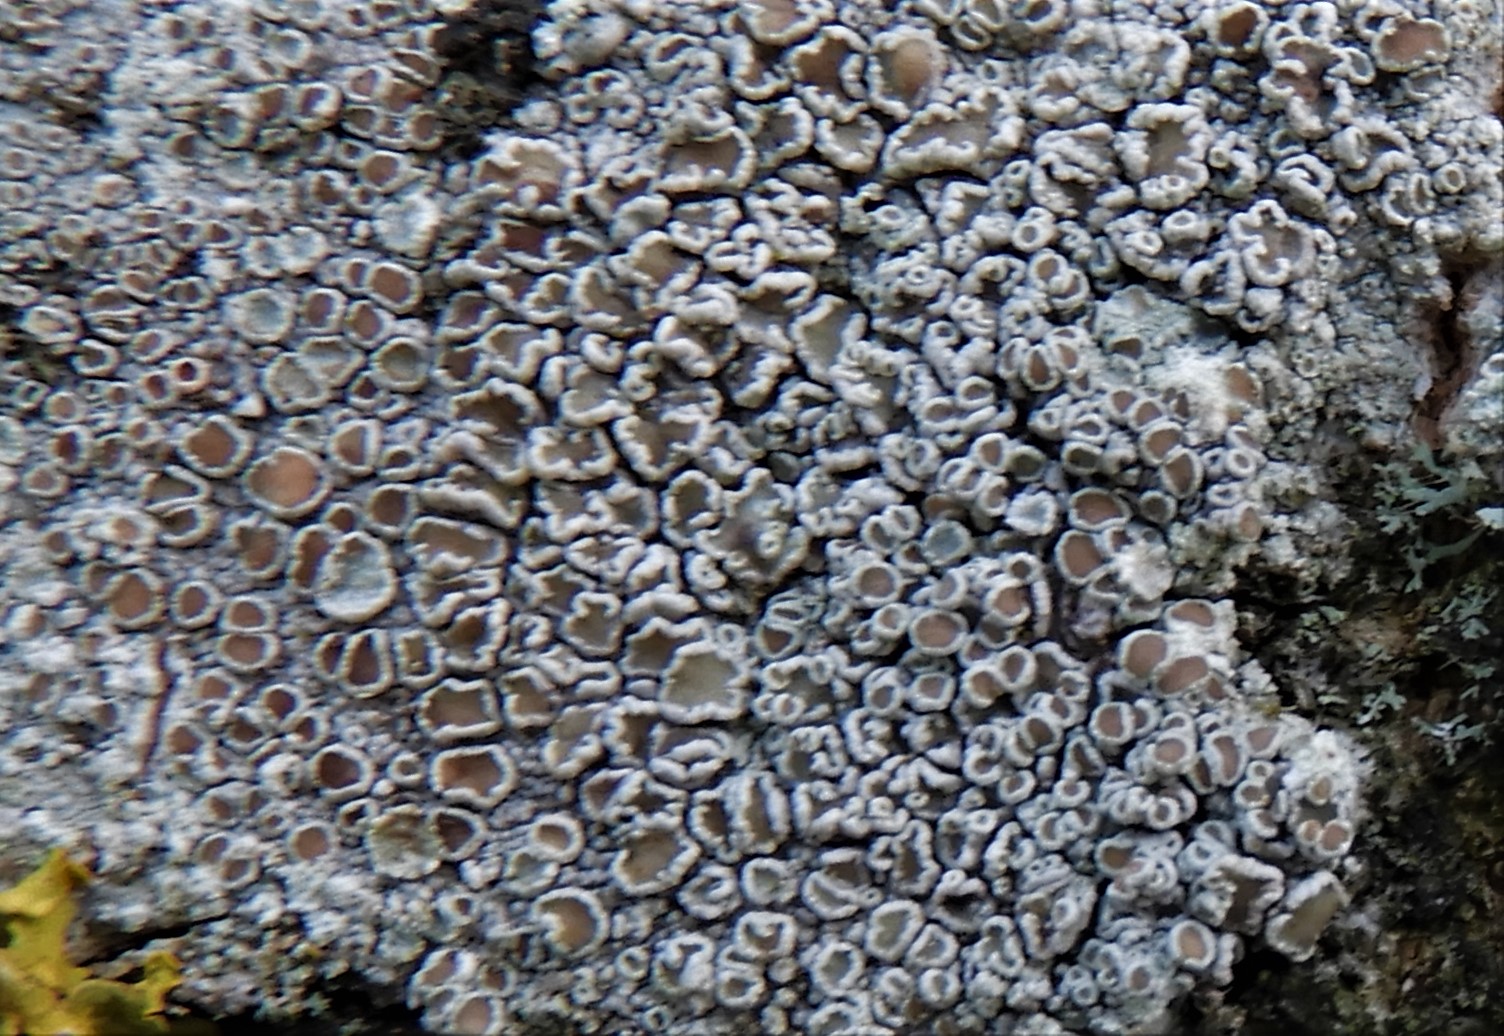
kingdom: Fungi
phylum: Ascomycota
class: Lecanoromycetes
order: Lecanorales
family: Lecanoraceae
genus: Lecanora
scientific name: Lecanora chlarotera
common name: brun kantskivelav
